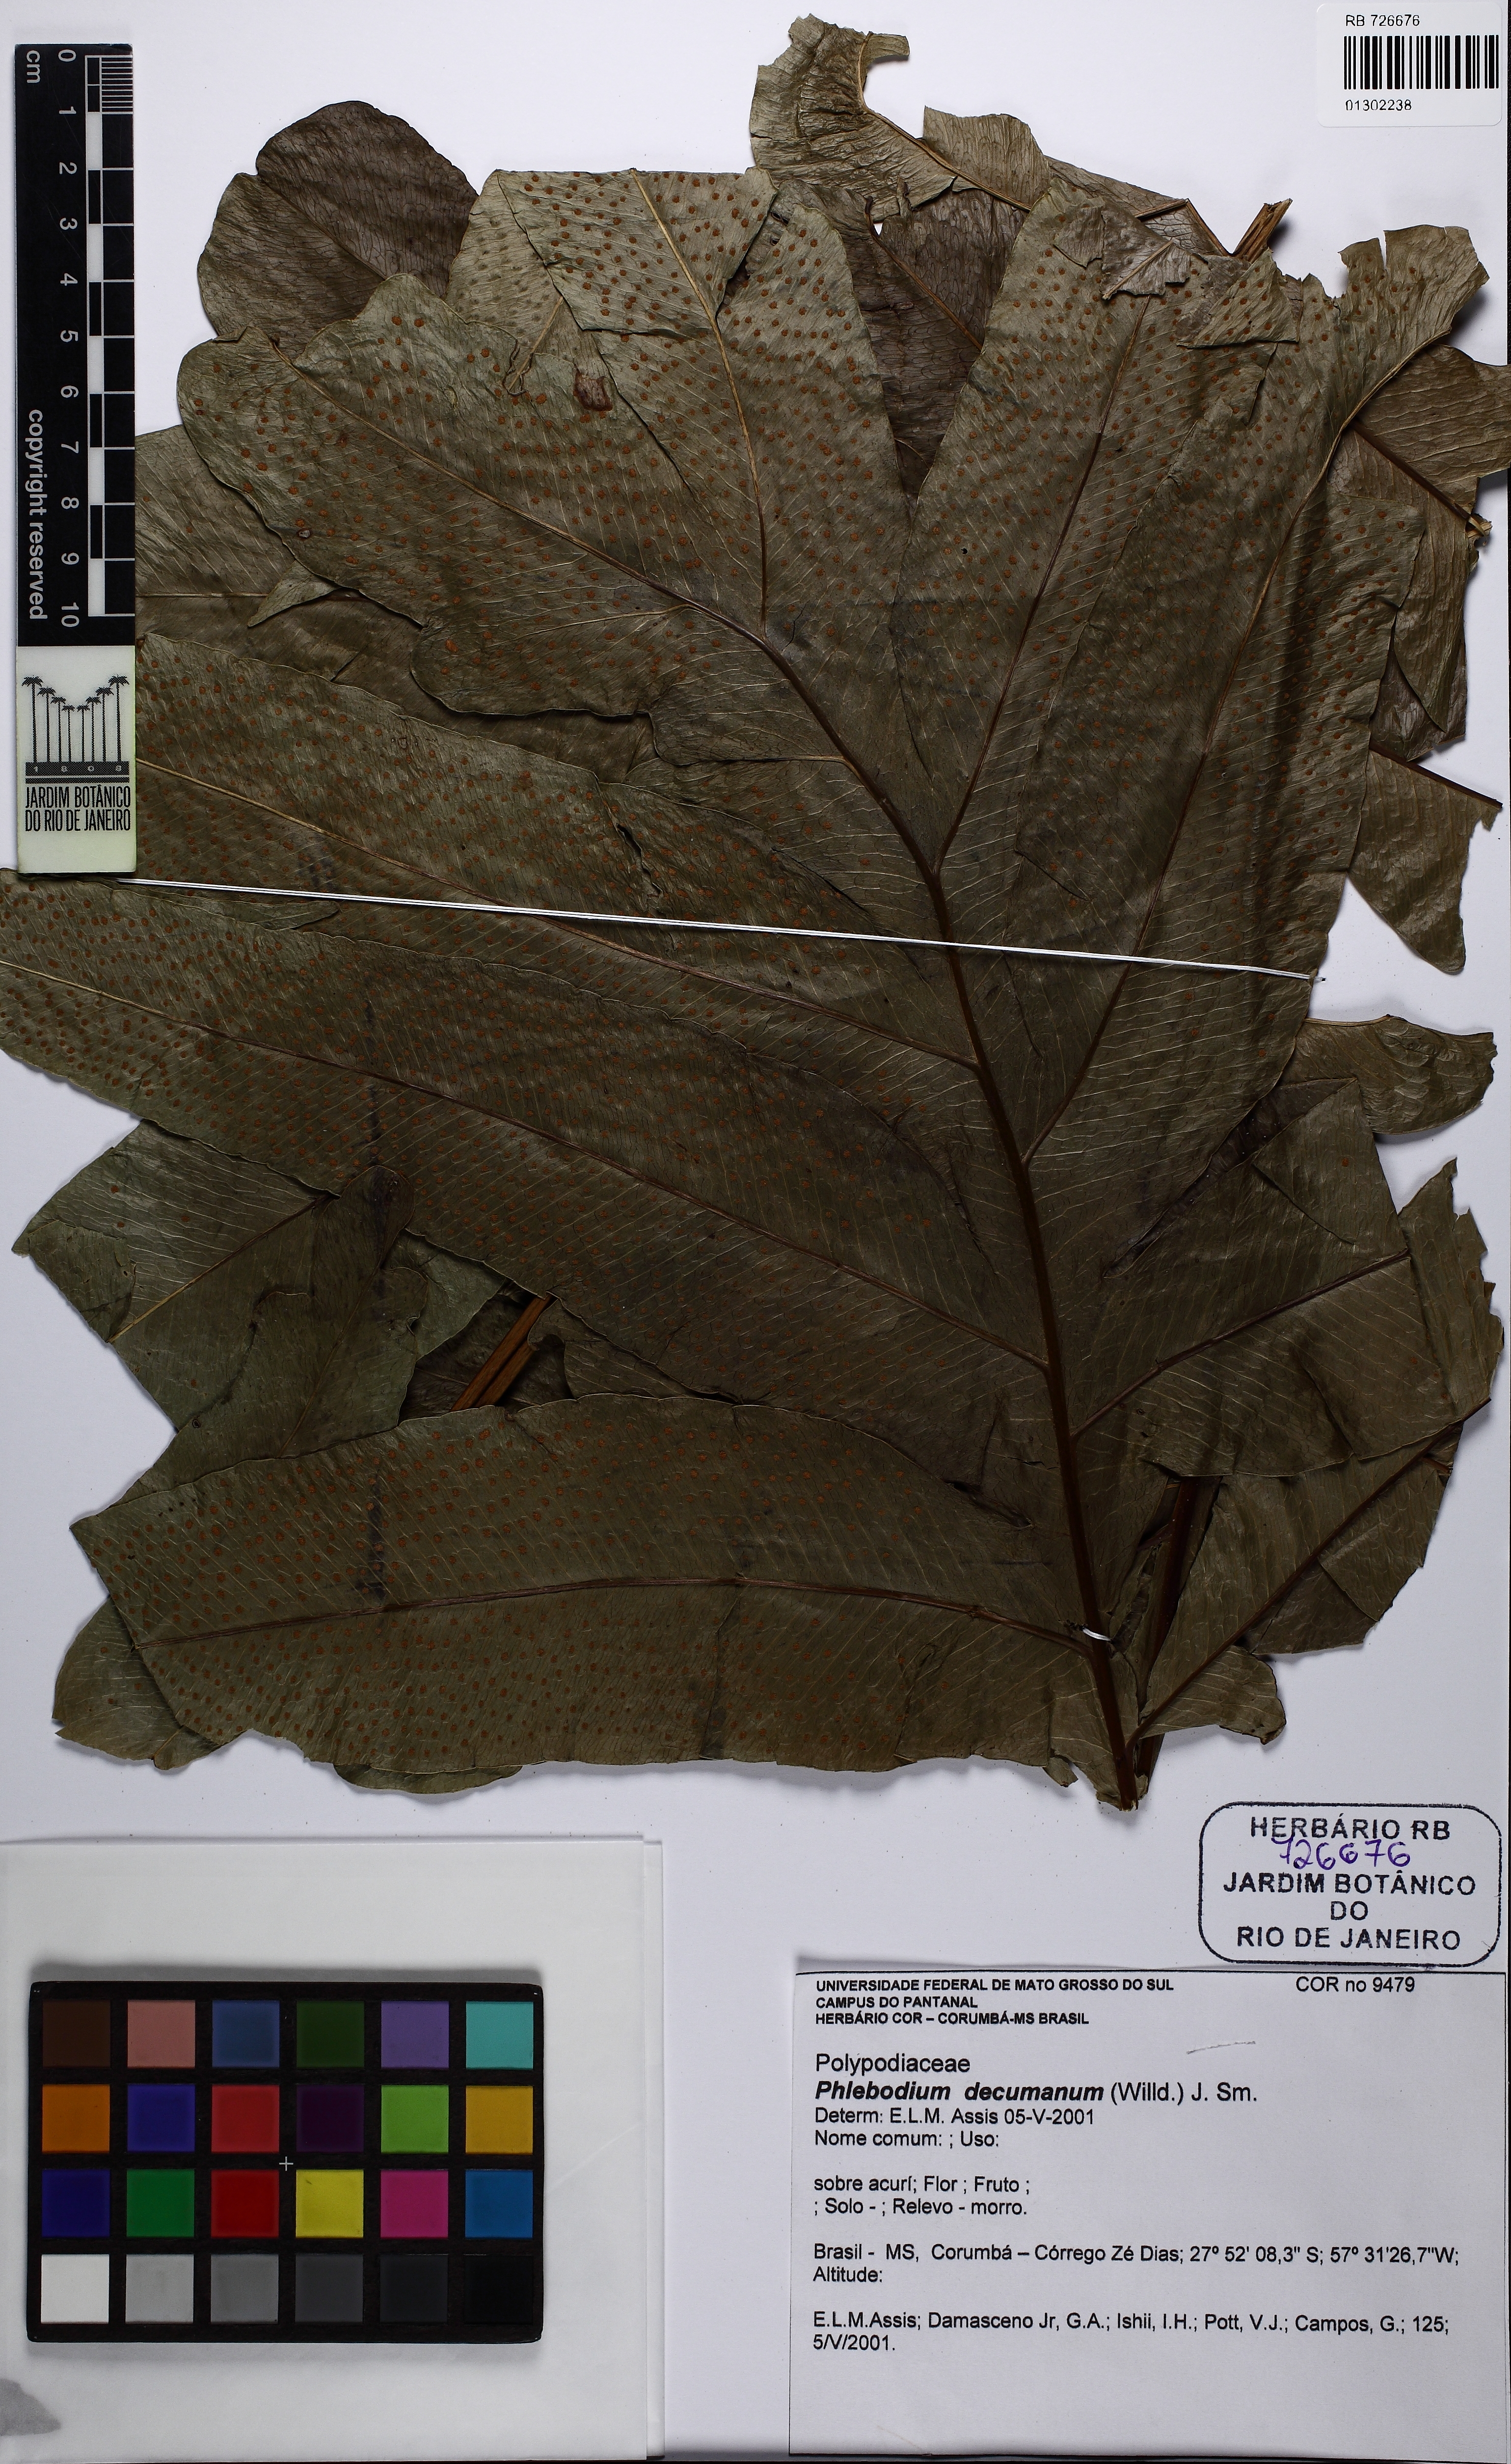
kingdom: Plantae
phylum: Tracheophyta
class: Polypodiopsida
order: Polypodiales
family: Polypodiaceae
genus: Phlebodium
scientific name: Phlebodium decumanum
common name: Golden polypod
